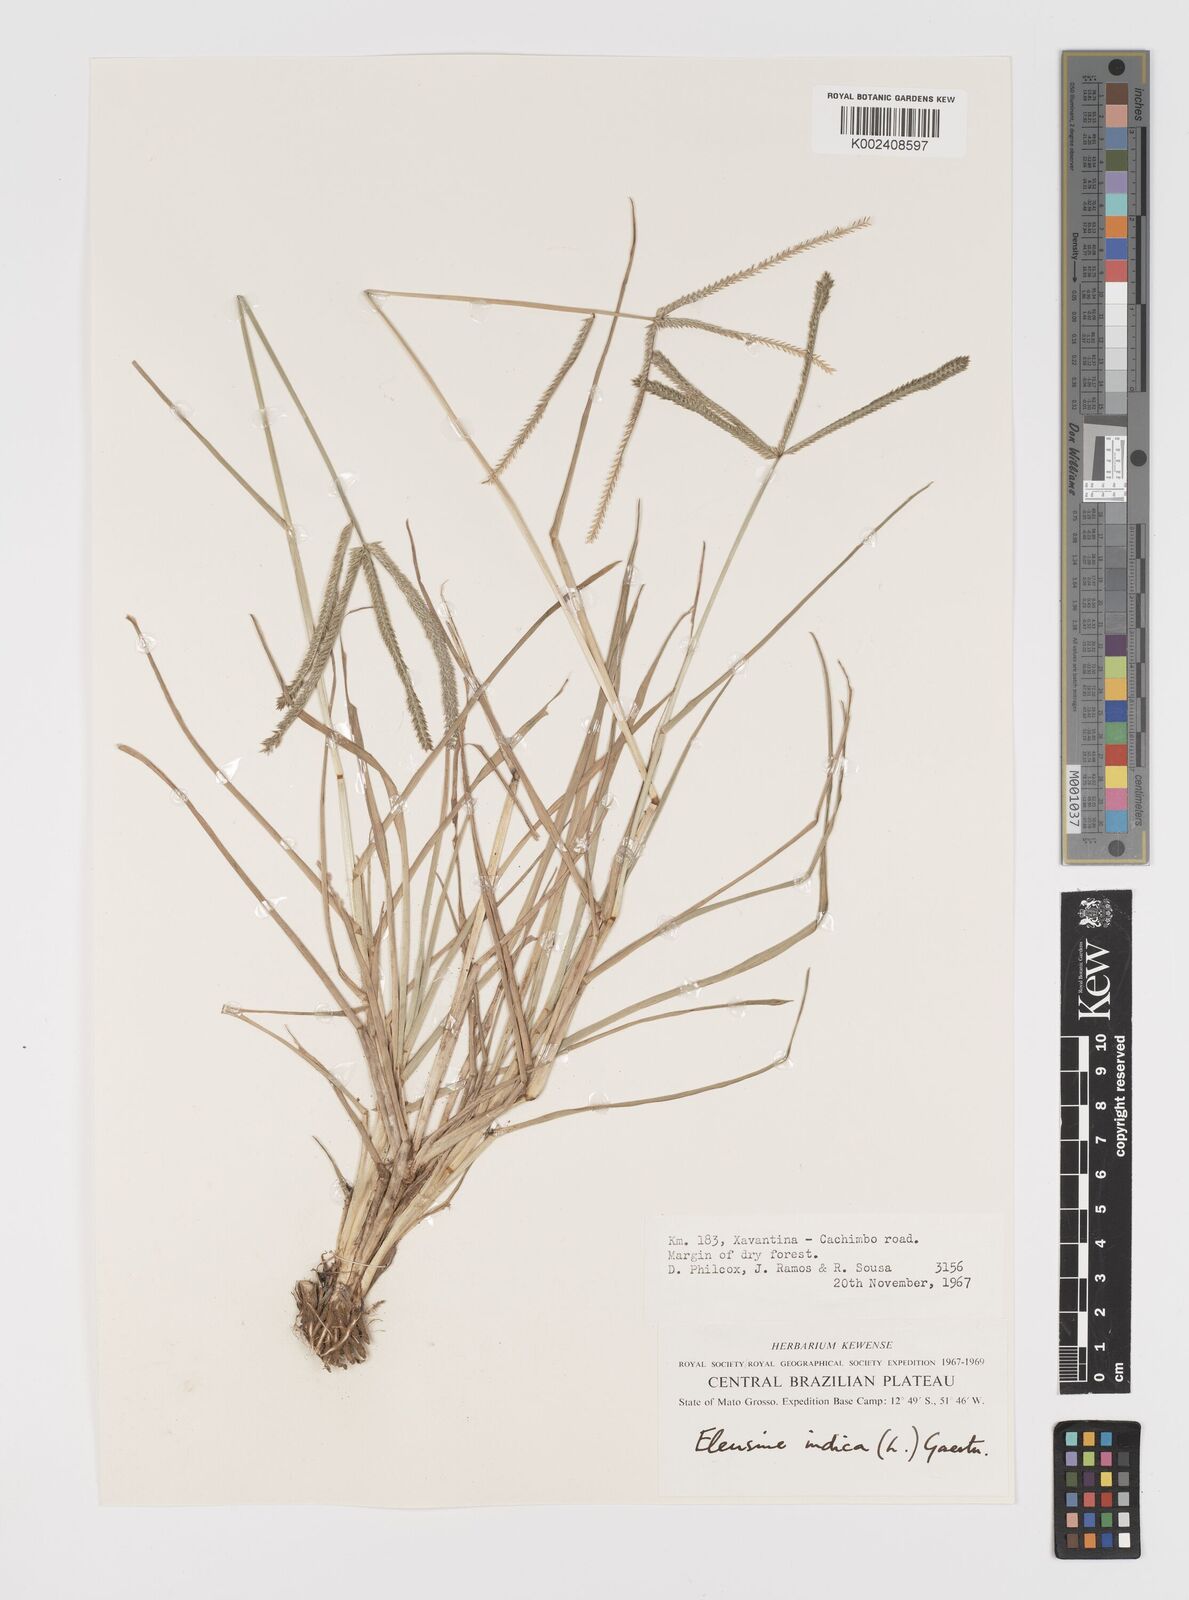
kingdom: Plantae
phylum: Tracheophyta
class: Liliopsida
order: Poales
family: Poaceae
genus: Eleusine
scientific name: Eleusine indica
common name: Yard-grass
